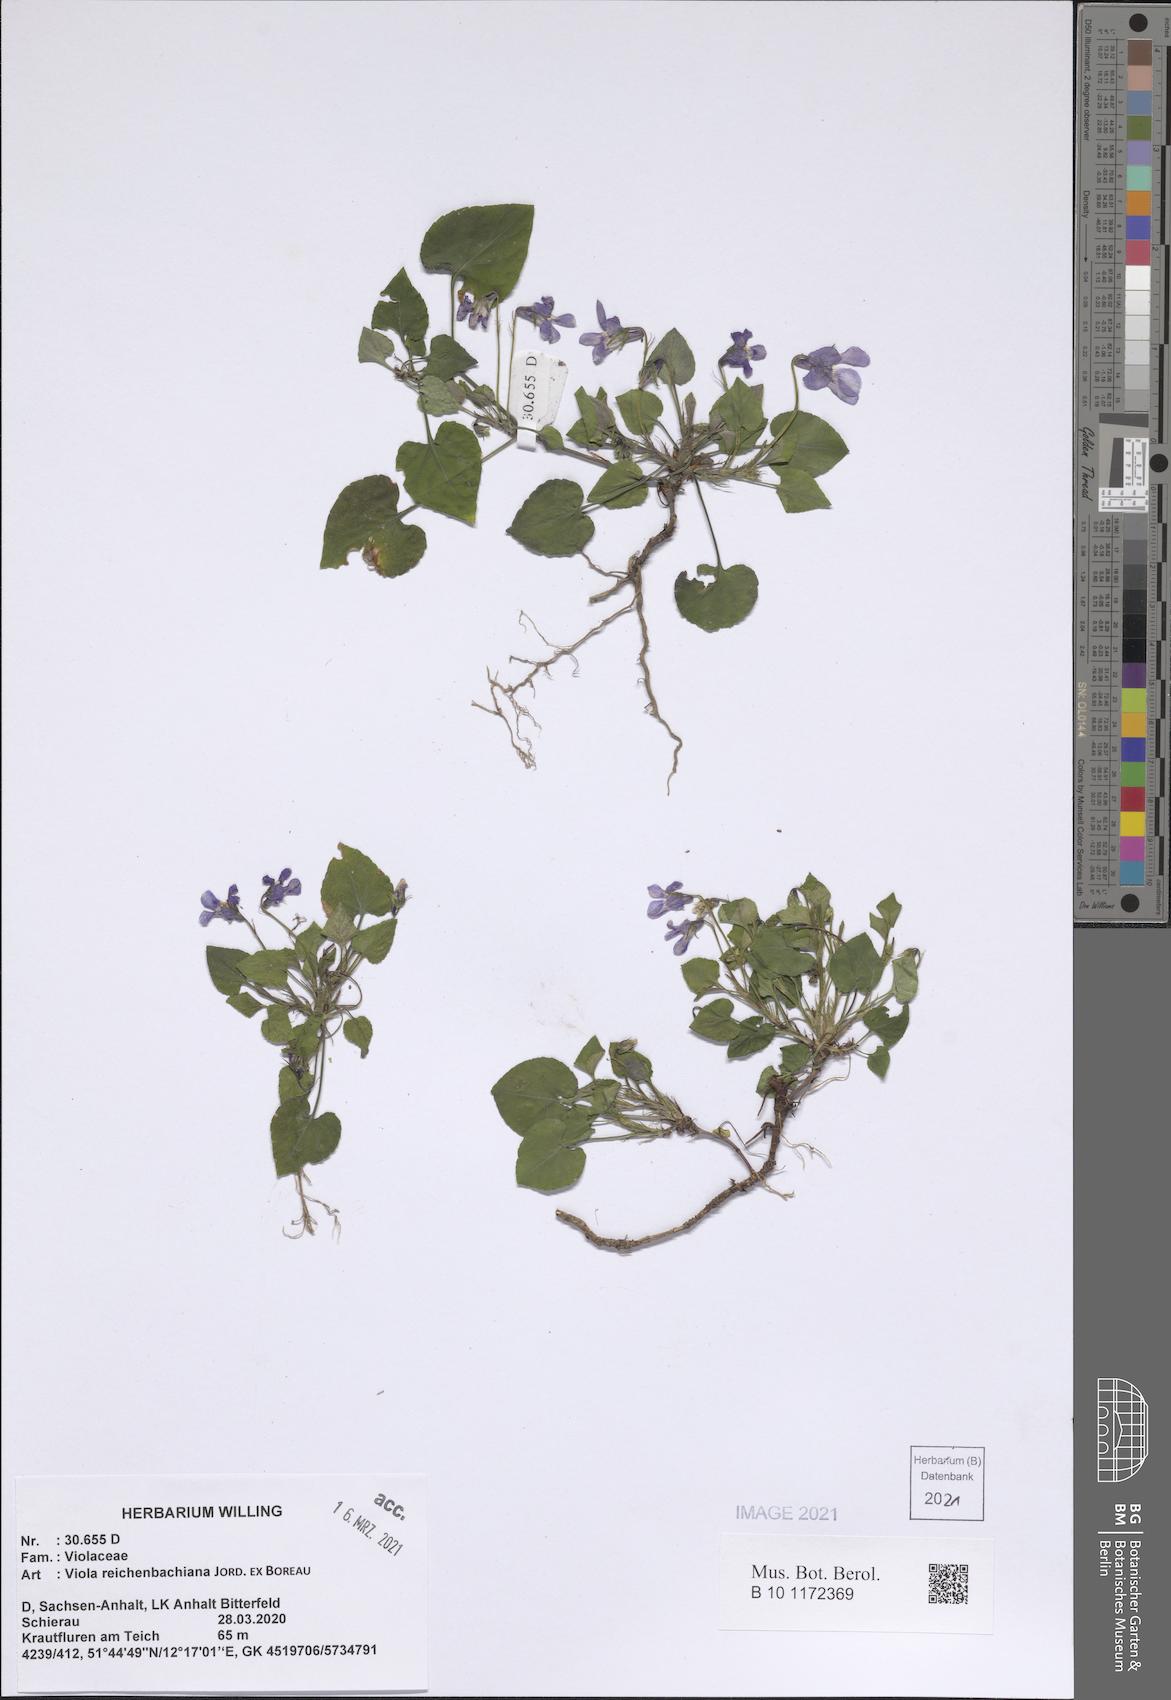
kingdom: Plantae
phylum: Tracheophyta
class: Magnoliopsida
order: Malpighiales
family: Violaceae
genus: Viola
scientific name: Viola reichenbachiana
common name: Early dog-violet
